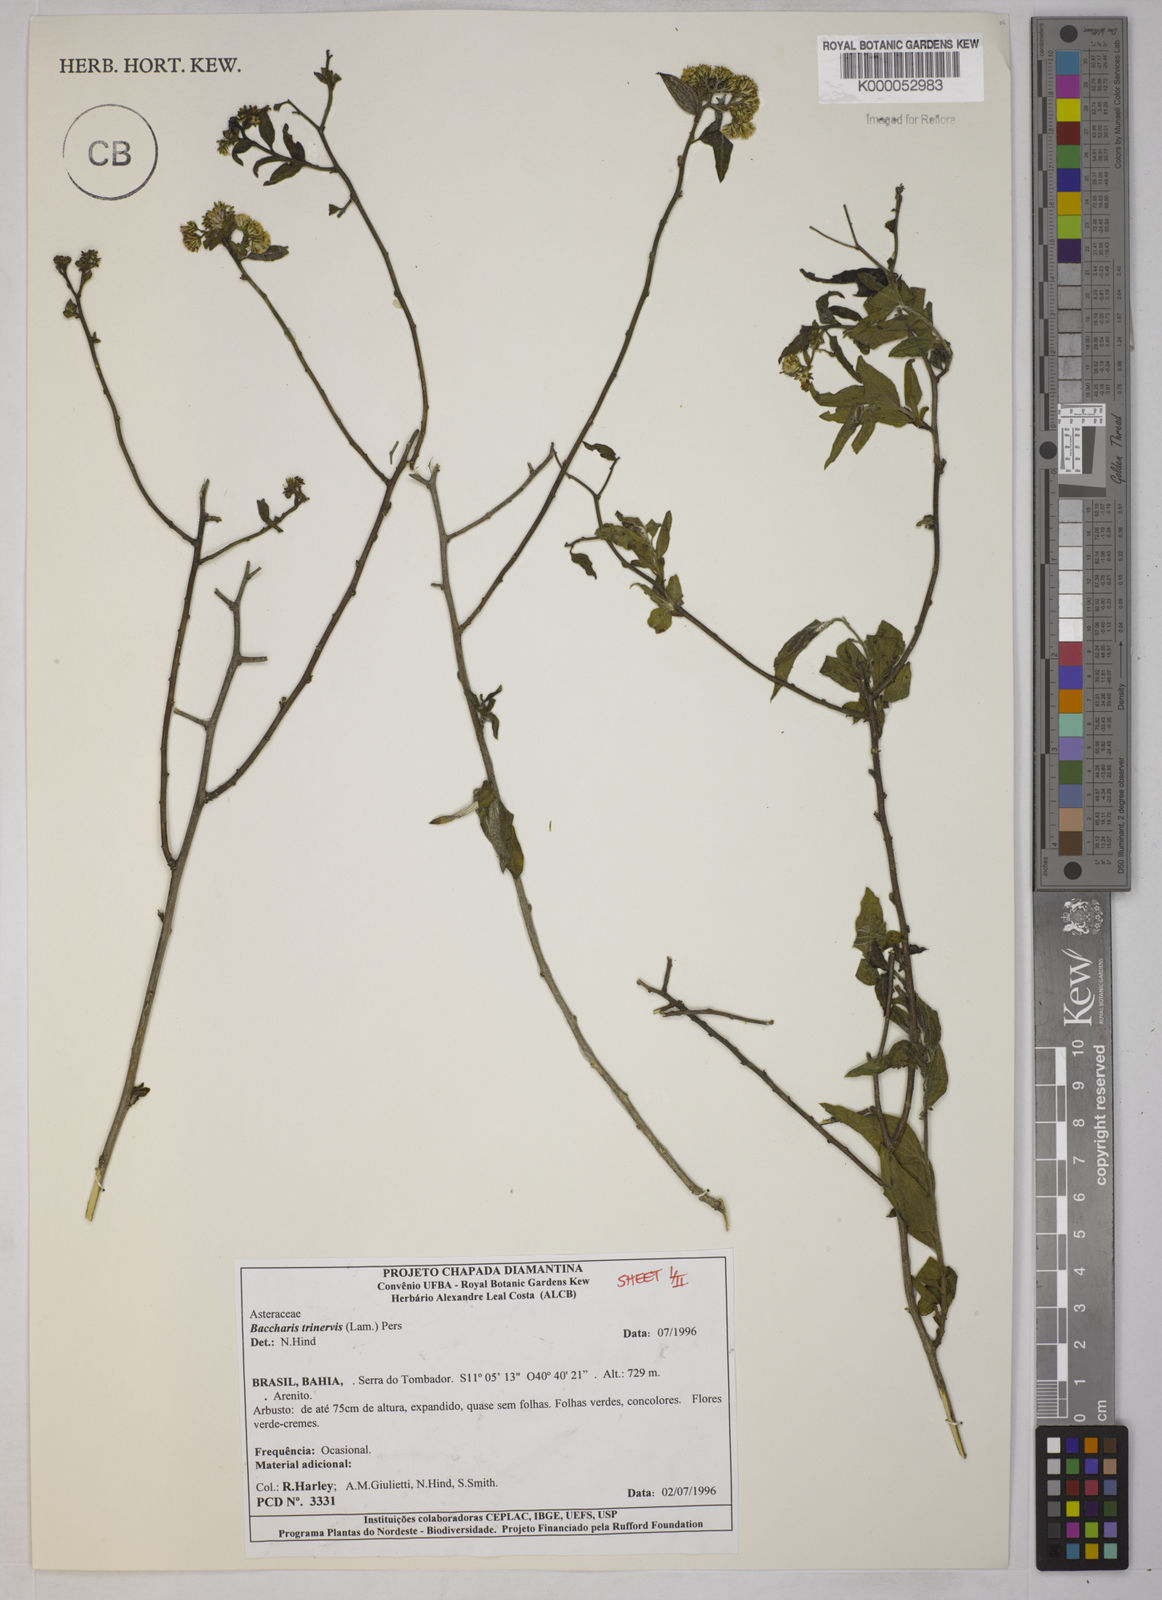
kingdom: Plantae
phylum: Tracheophyta
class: Magnoliopsida
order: Asterales
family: Asteraceae
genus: Baccharis
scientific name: Baccharis trinervis
